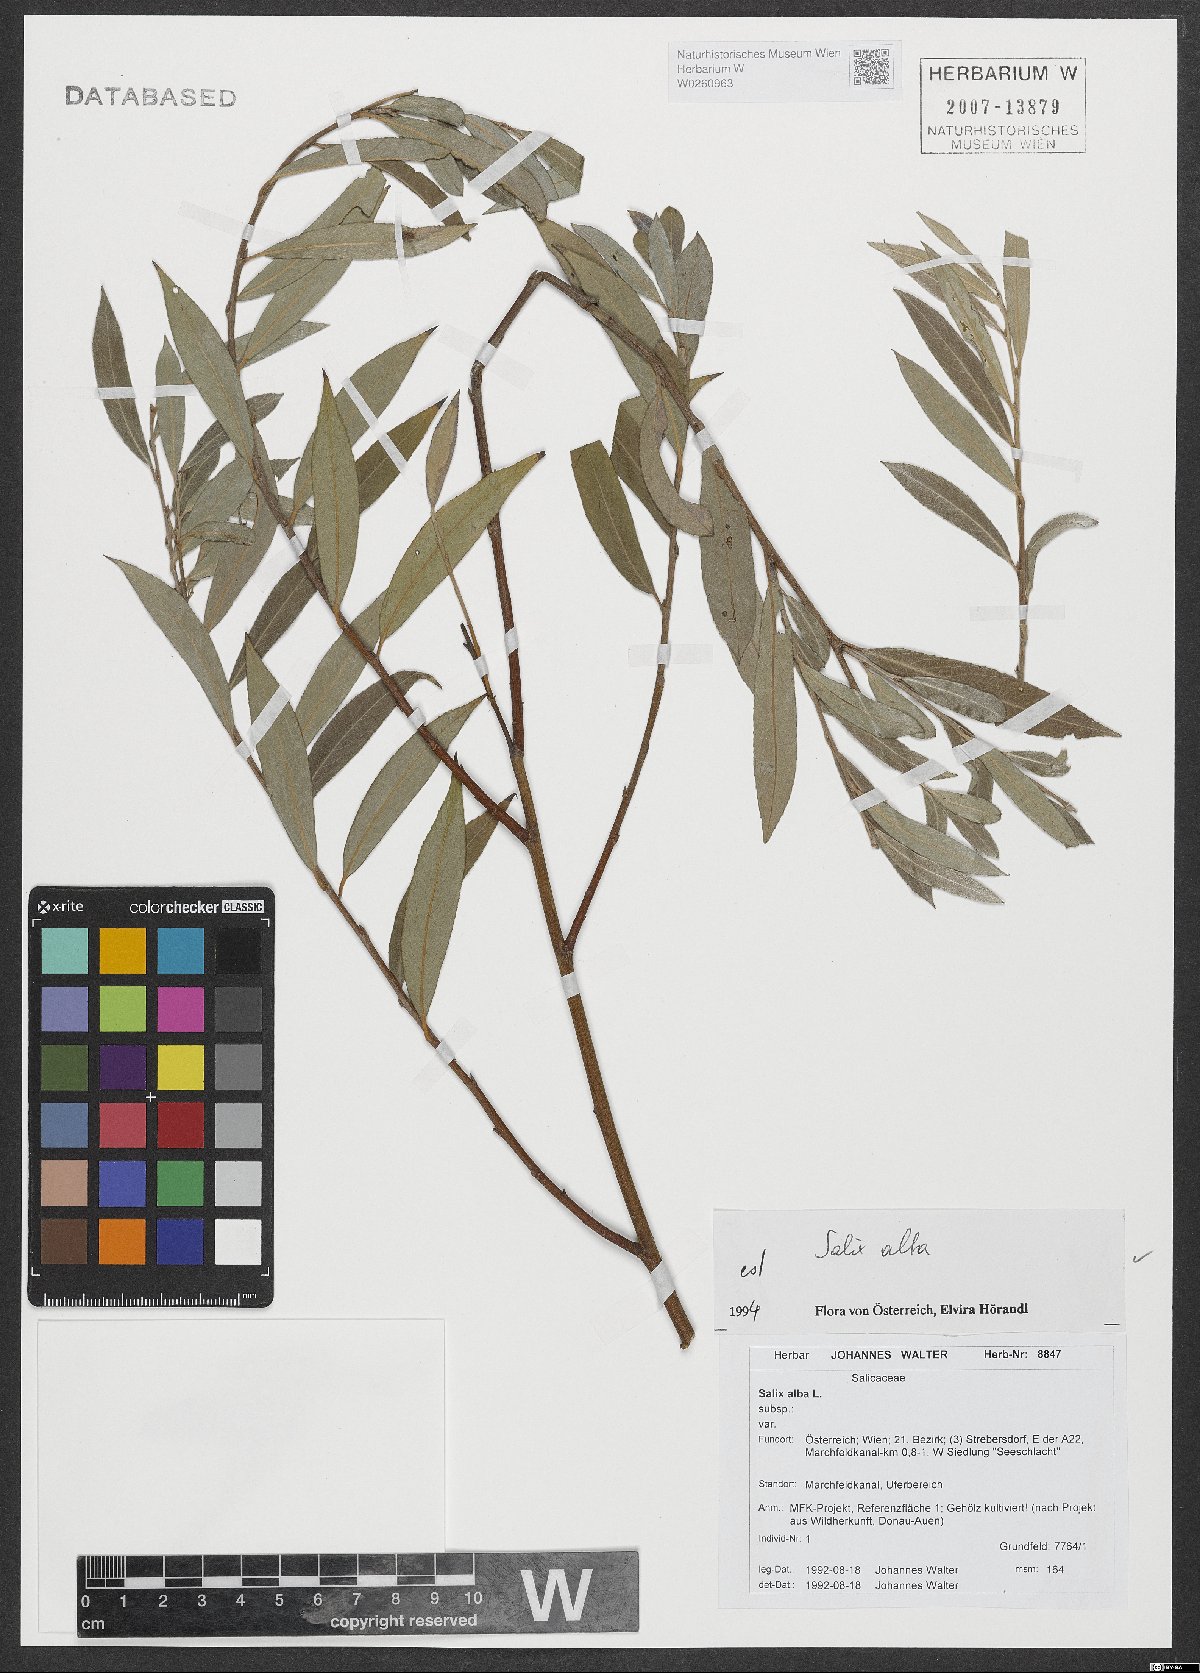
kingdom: Plantae
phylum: Tracheophyta
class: Magnoliopsida
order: Malpighiales
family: Salicaceae
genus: Salix
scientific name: Salix alba
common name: White willow
